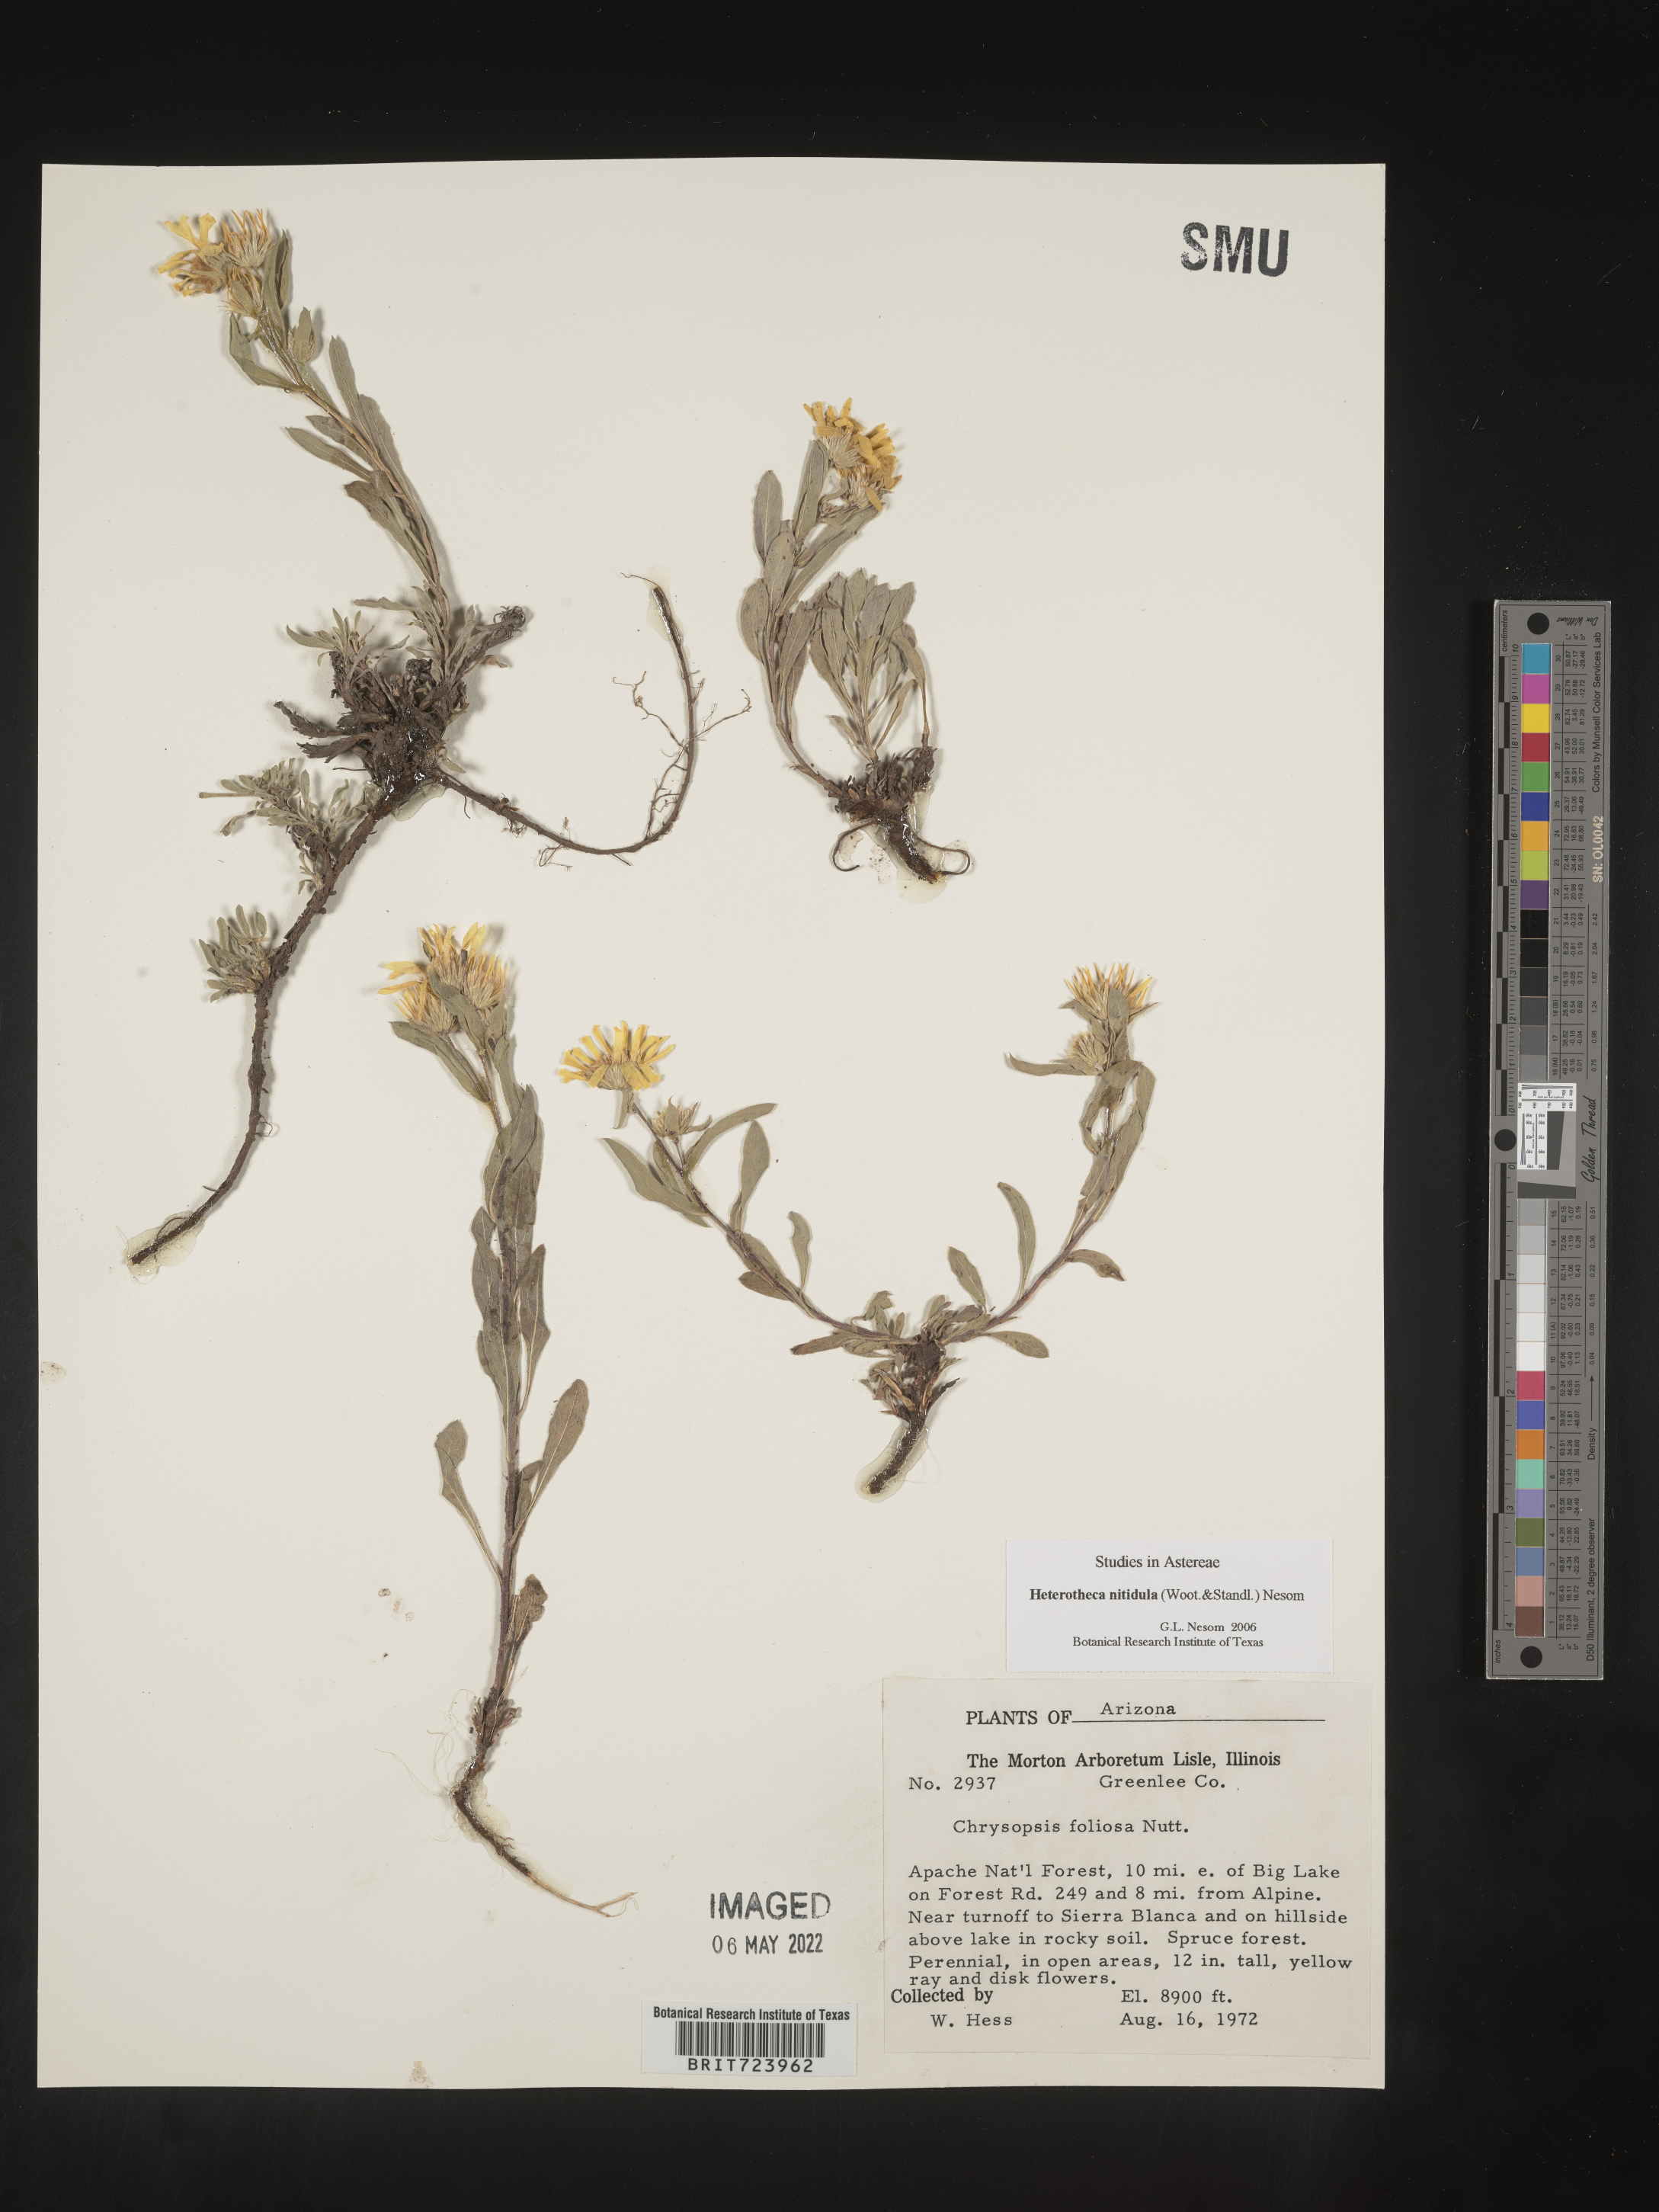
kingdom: Plantae
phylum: Tracheophyta
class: Magnoliopsida
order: Asterales
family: Asteraceae
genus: Heterotheca
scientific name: Heterotheca nitidula
